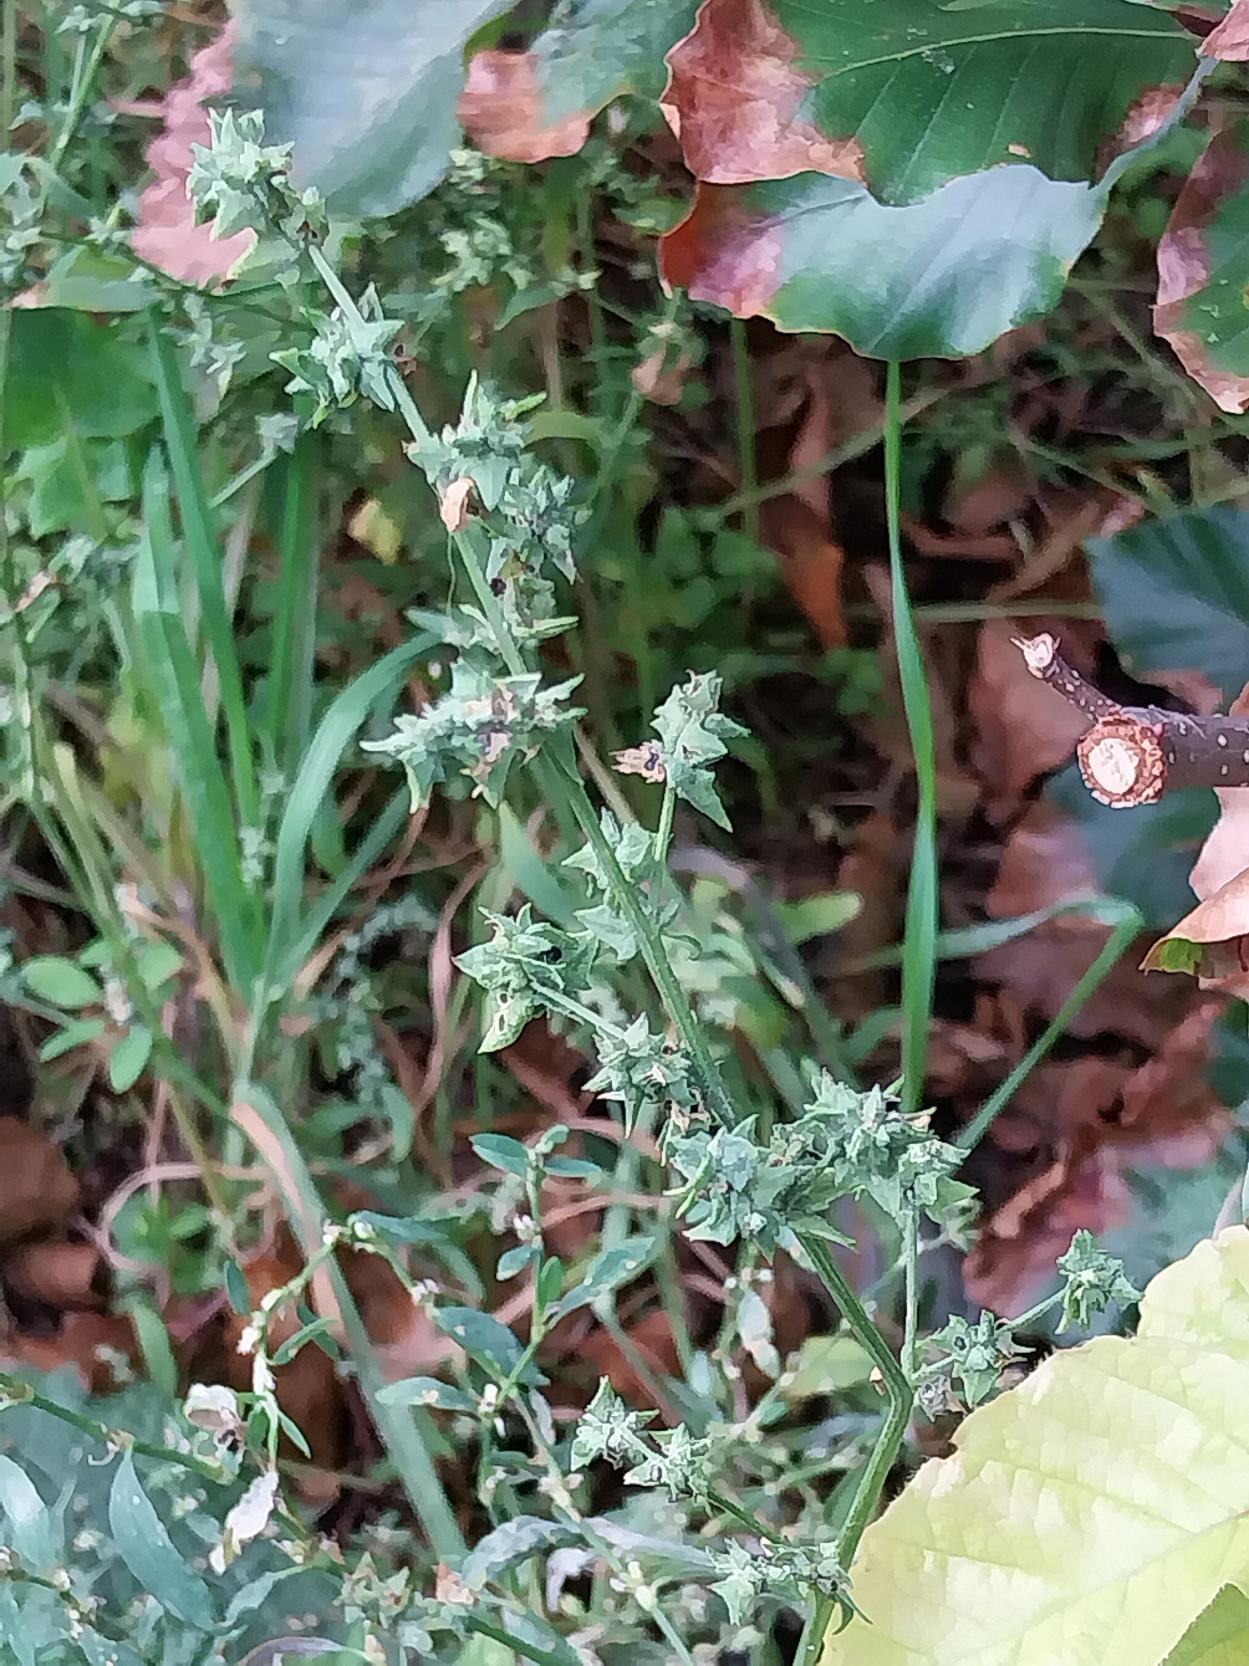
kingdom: Plantae
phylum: Tracheophyta
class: Magnoliopsida
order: Caryophyllales
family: Amaranthaceae
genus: Atriplex
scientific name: Atriplex patula
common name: Svine-mælde
